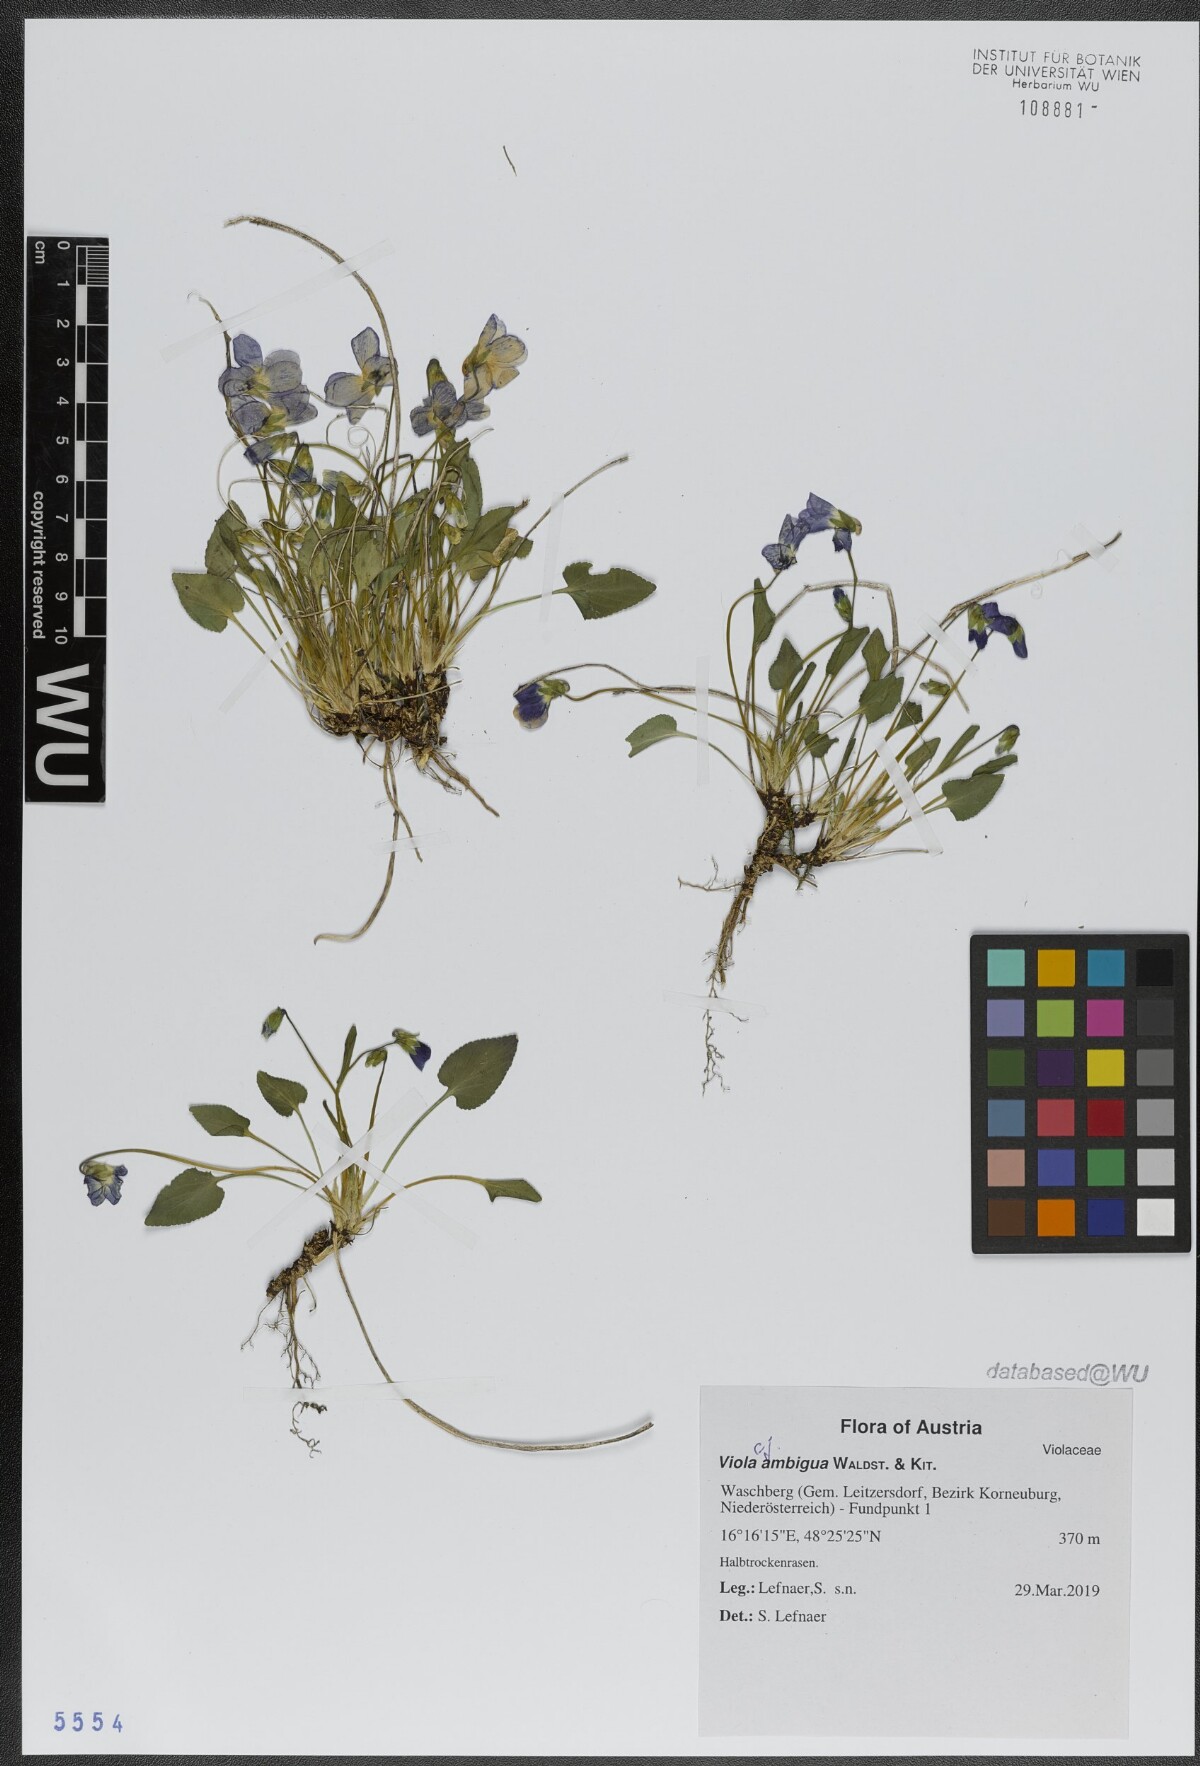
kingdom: Plantae
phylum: Tracheophyta
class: Magnoliopsida
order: Malpighiales
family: Violaceae
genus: Viola
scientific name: Viola ambigua
